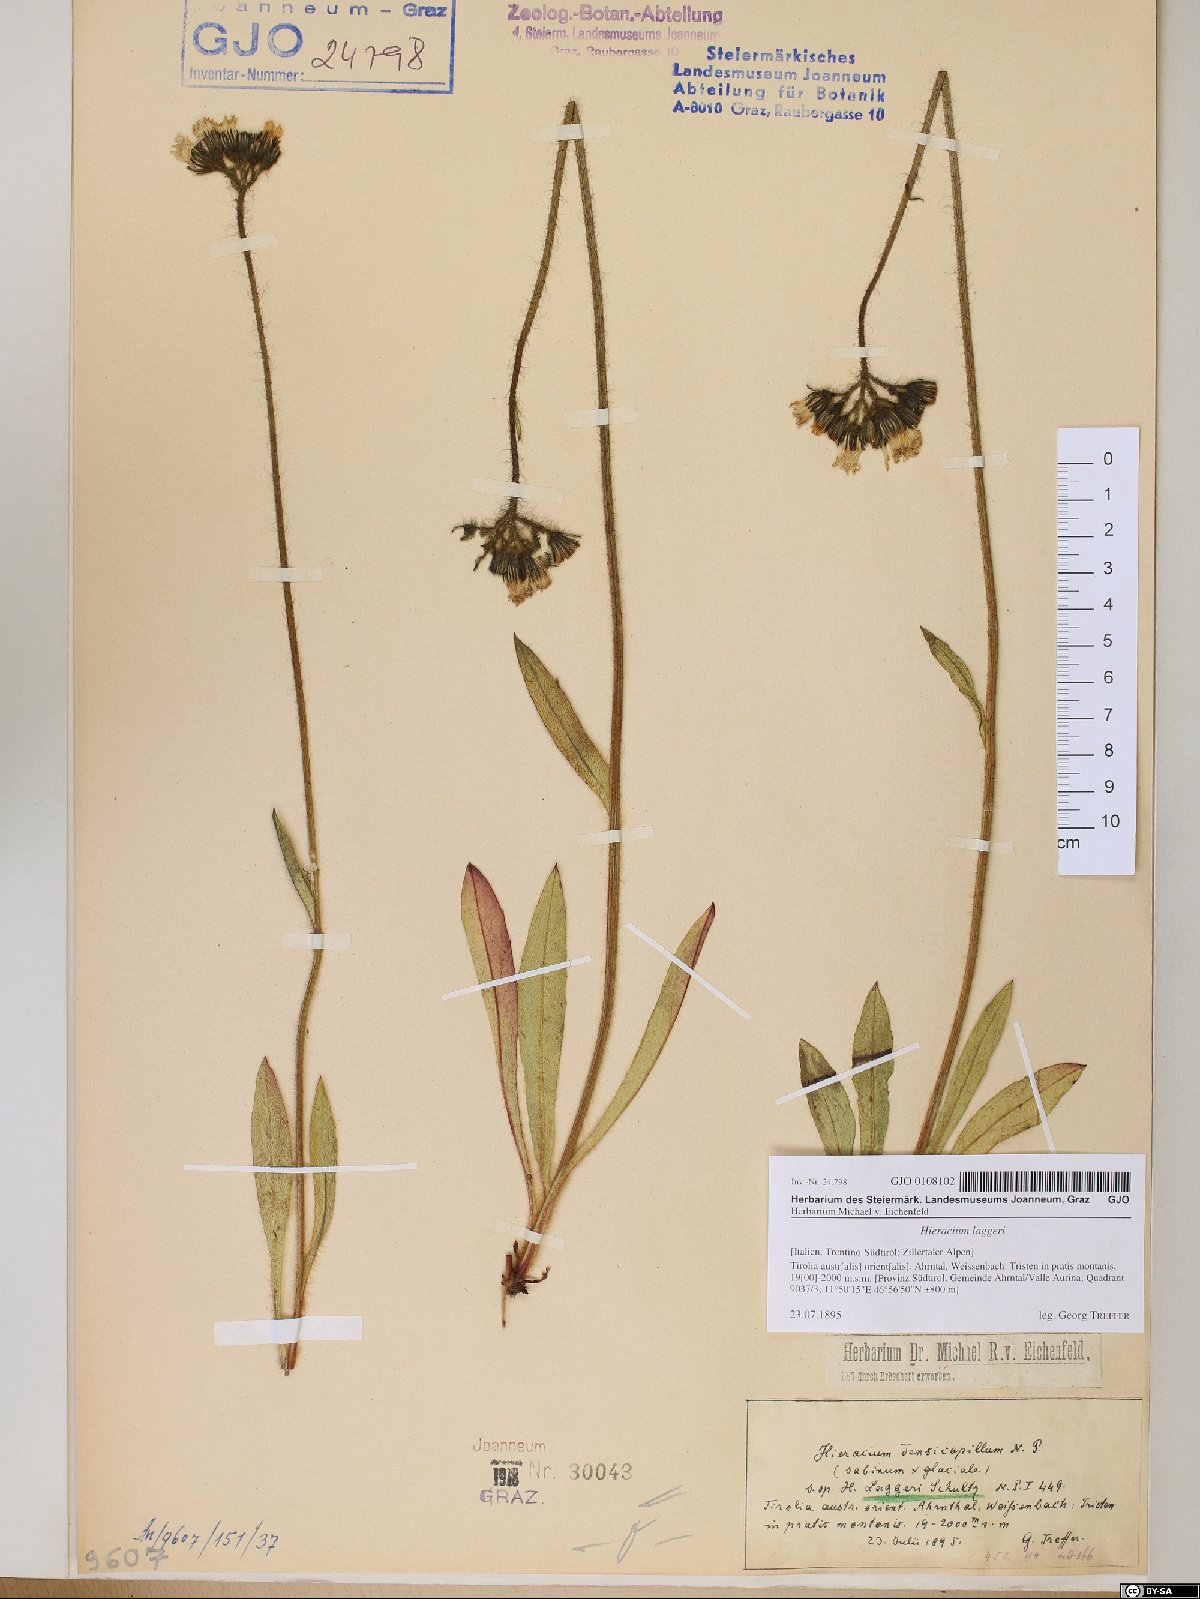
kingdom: Plantae
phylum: Tracheophyta
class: Magnoliopsida
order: Asterales
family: Asteraceae
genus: Hieracium
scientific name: Hieracium jordanii
